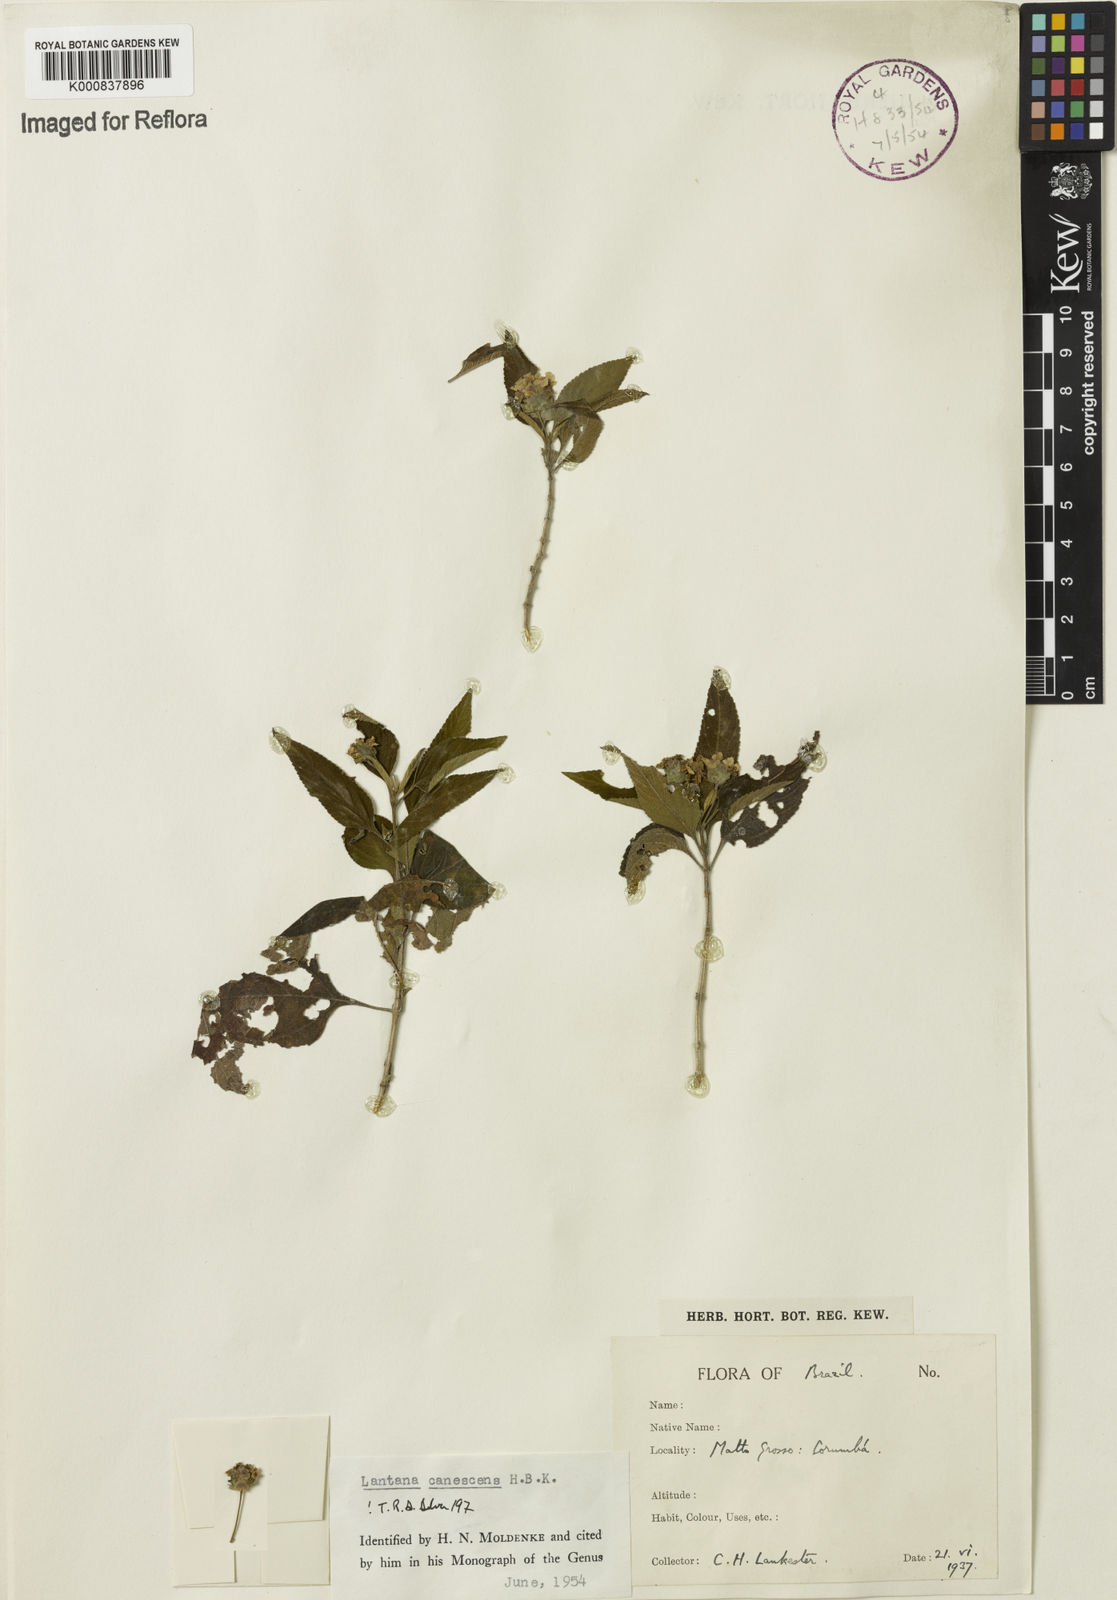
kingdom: Plantae
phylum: Tracheophyta
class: Magnoliopsida
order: Lamiales
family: Verbenaceae
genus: Lantana
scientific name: Lantana canescens
